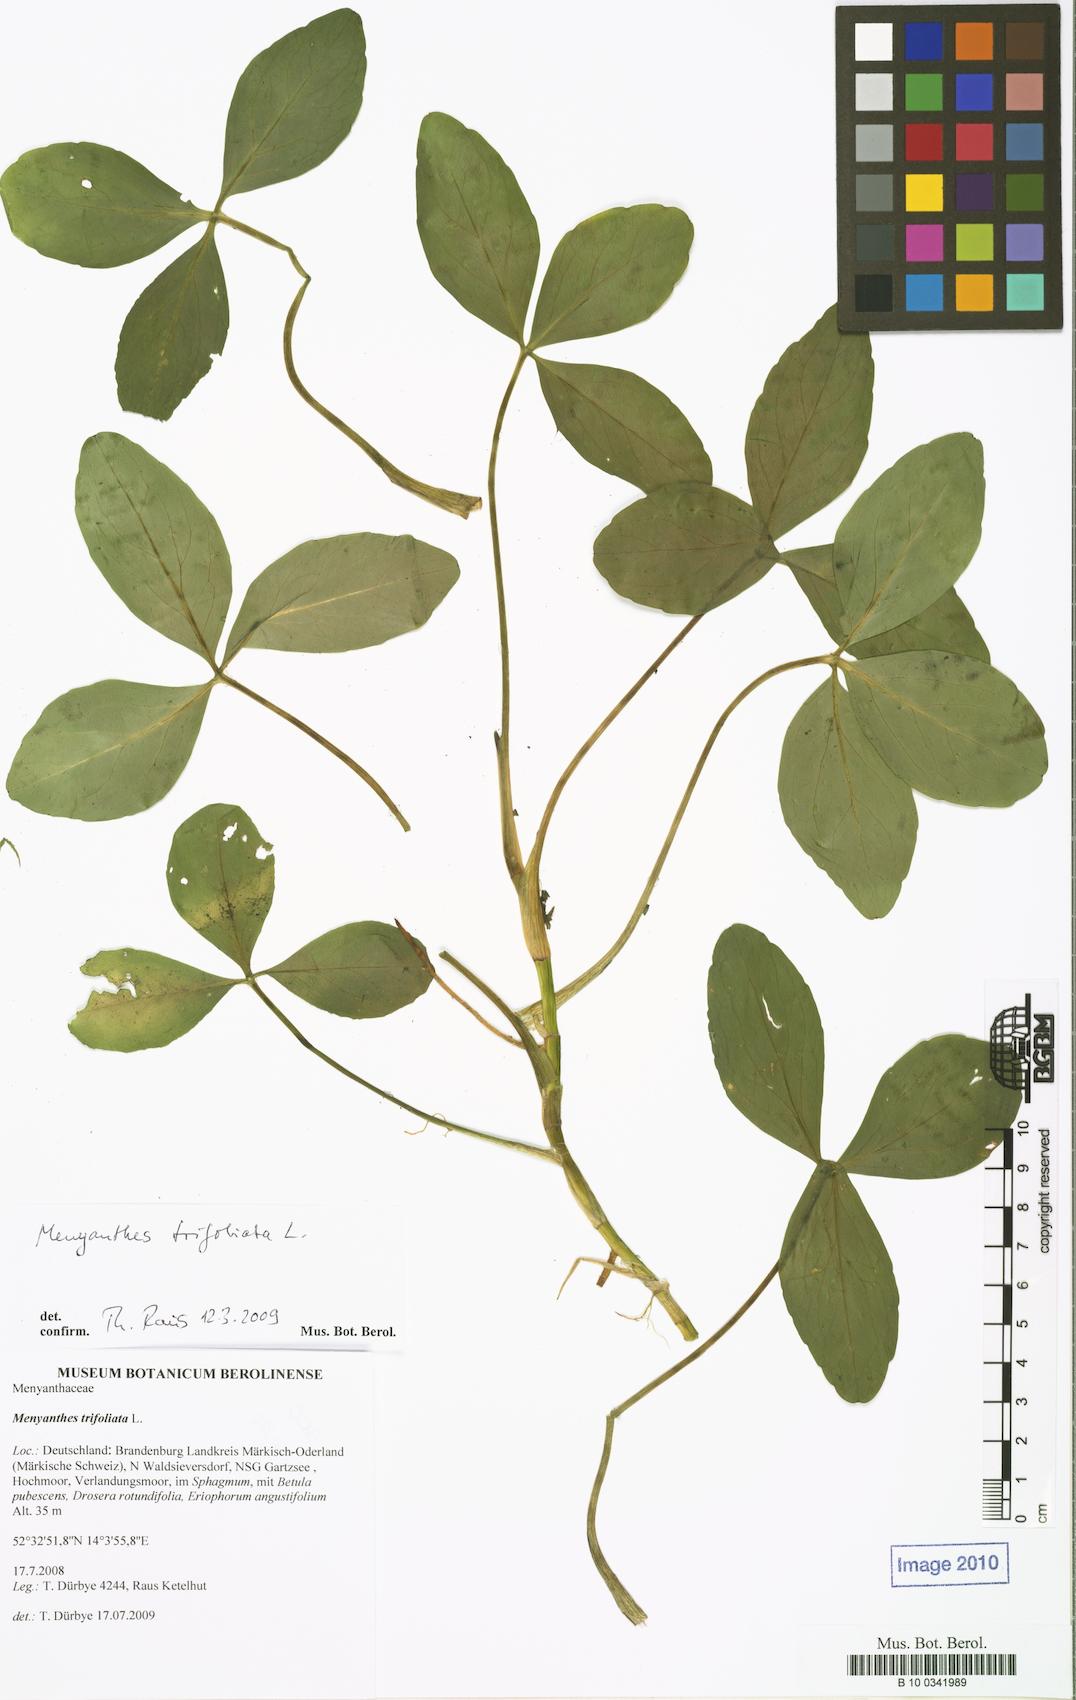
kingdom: Plantae
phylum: Tracheophyta
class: Magnoliopsida
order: Asterales
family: Menyanthaceae
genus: Menyanthes
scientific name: Menyanthes trifoliata
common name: Bogbean
